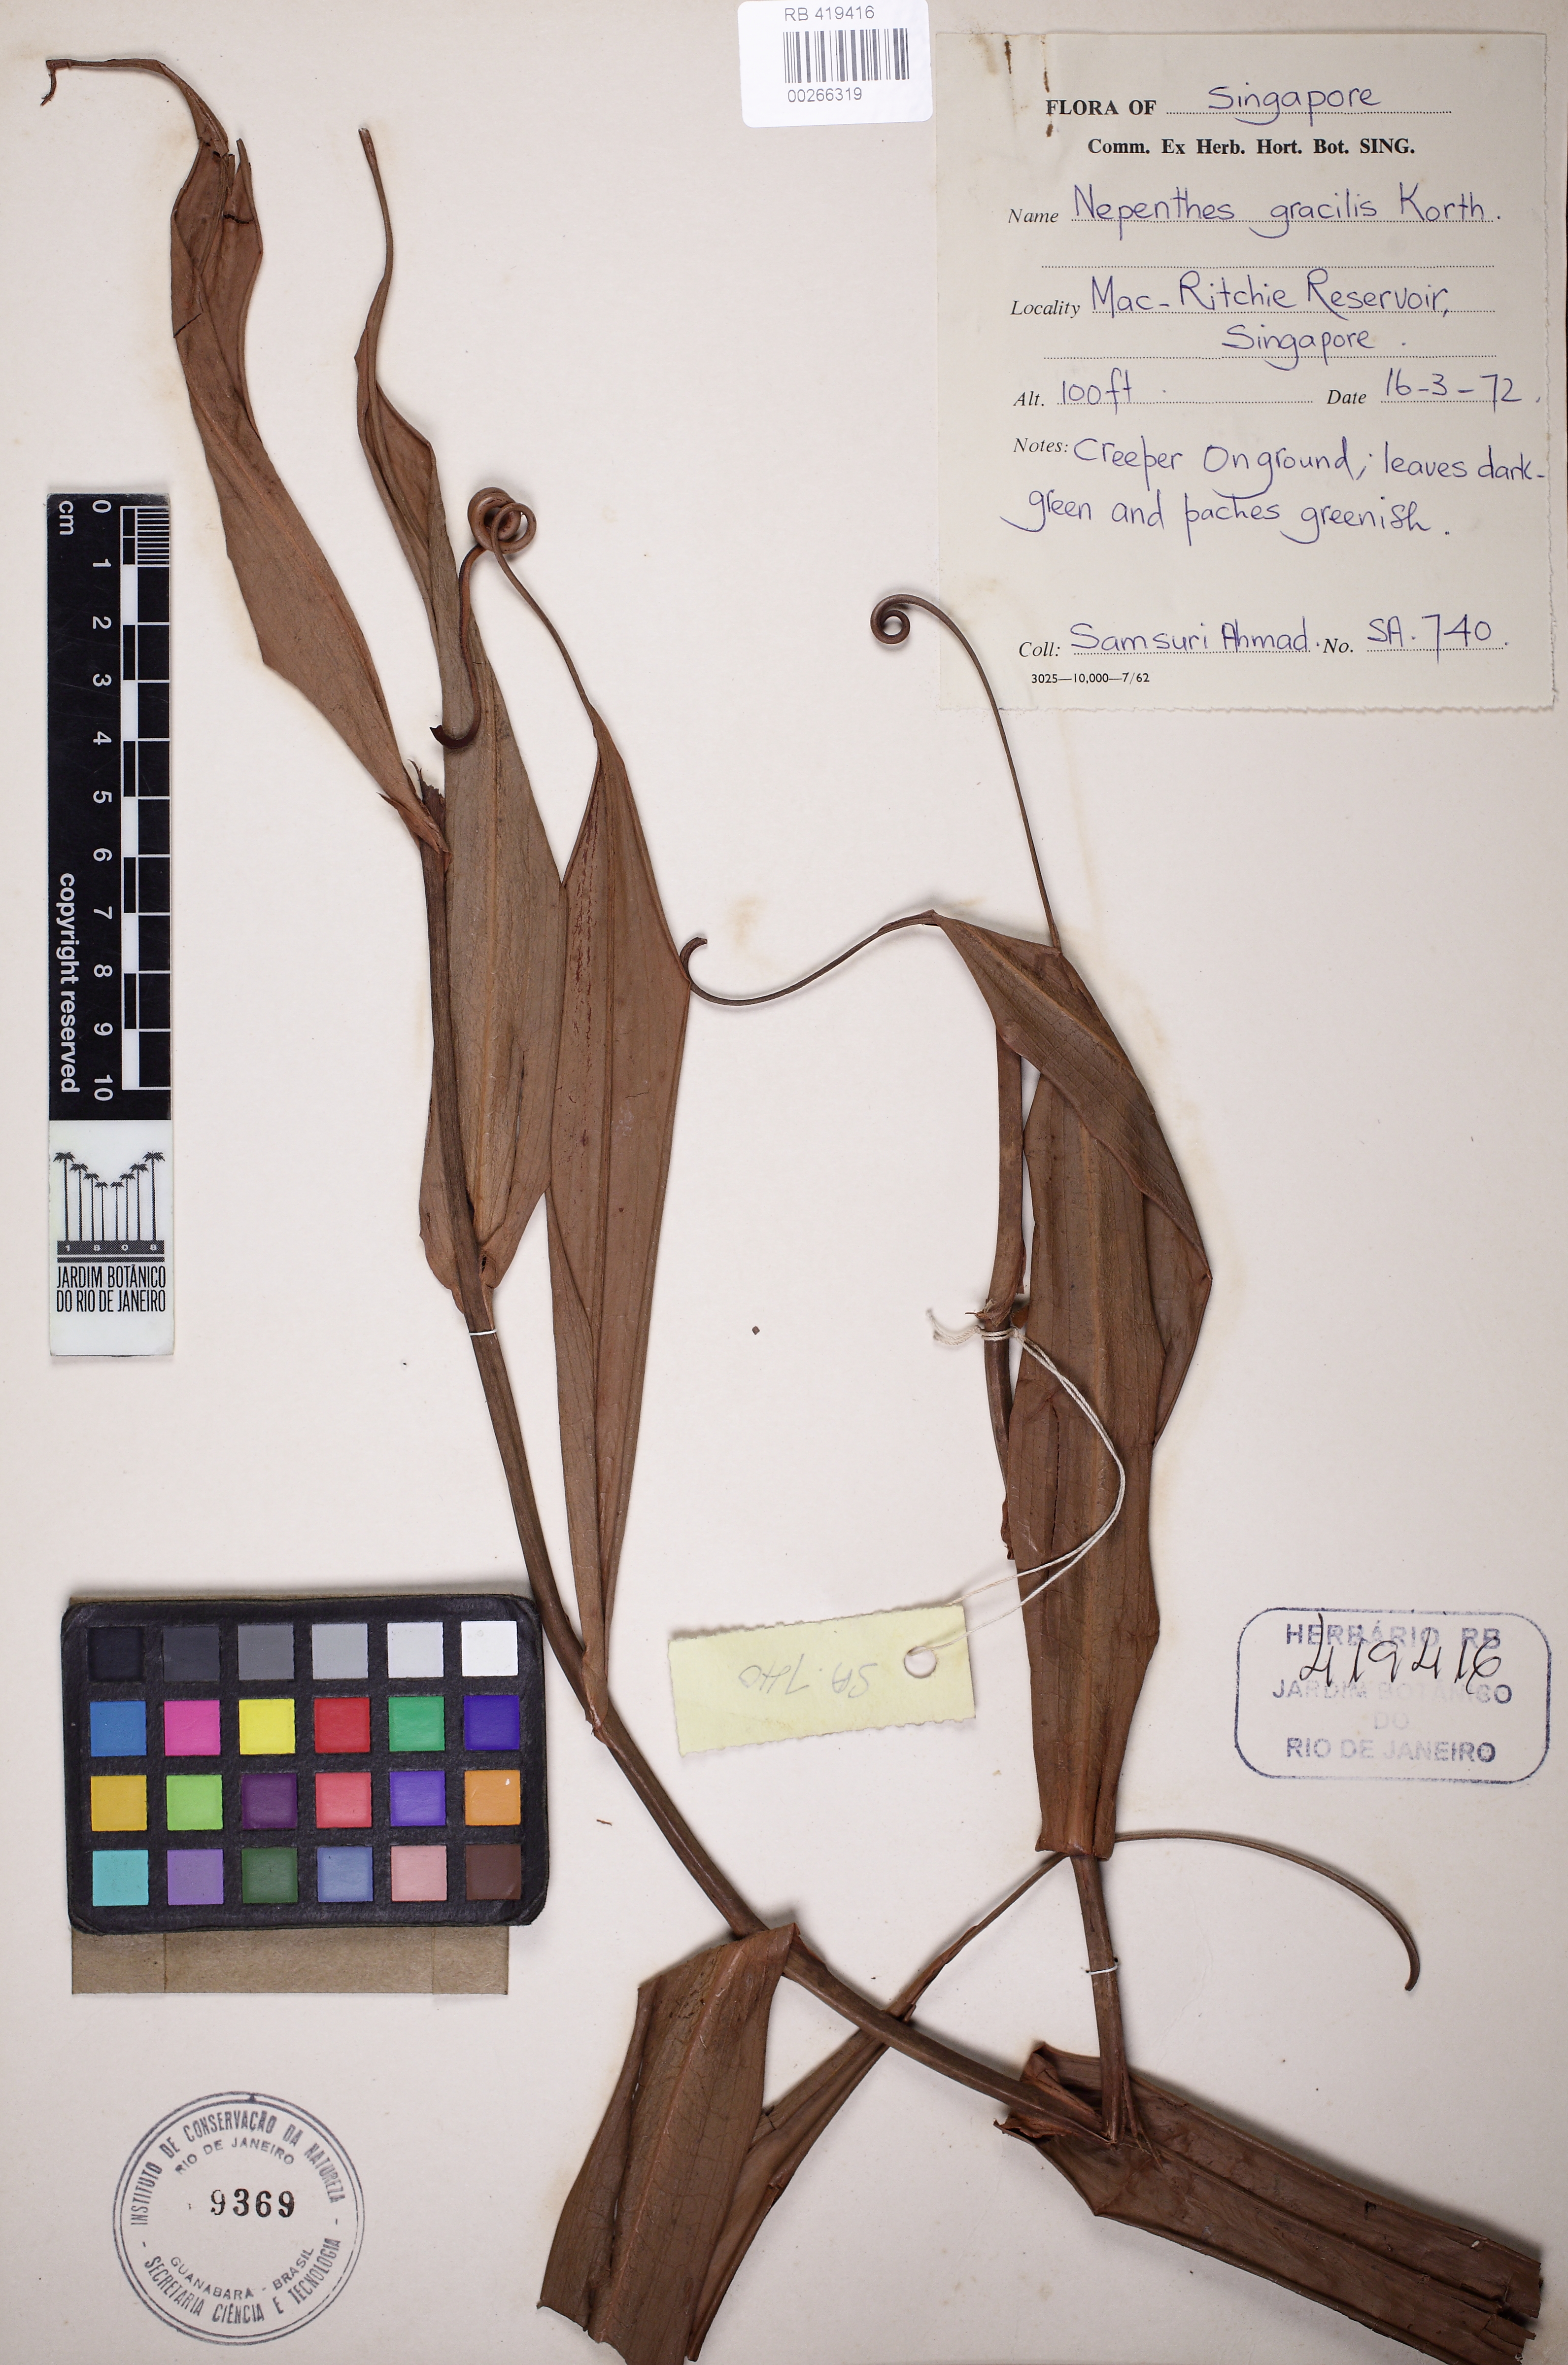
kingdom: Plantae
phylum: Tracheophyta
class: Magnoliopsida
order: Caryophyllales
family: Nepenthaceae
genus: Nepenthes
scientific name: Nepenthes gracilis
